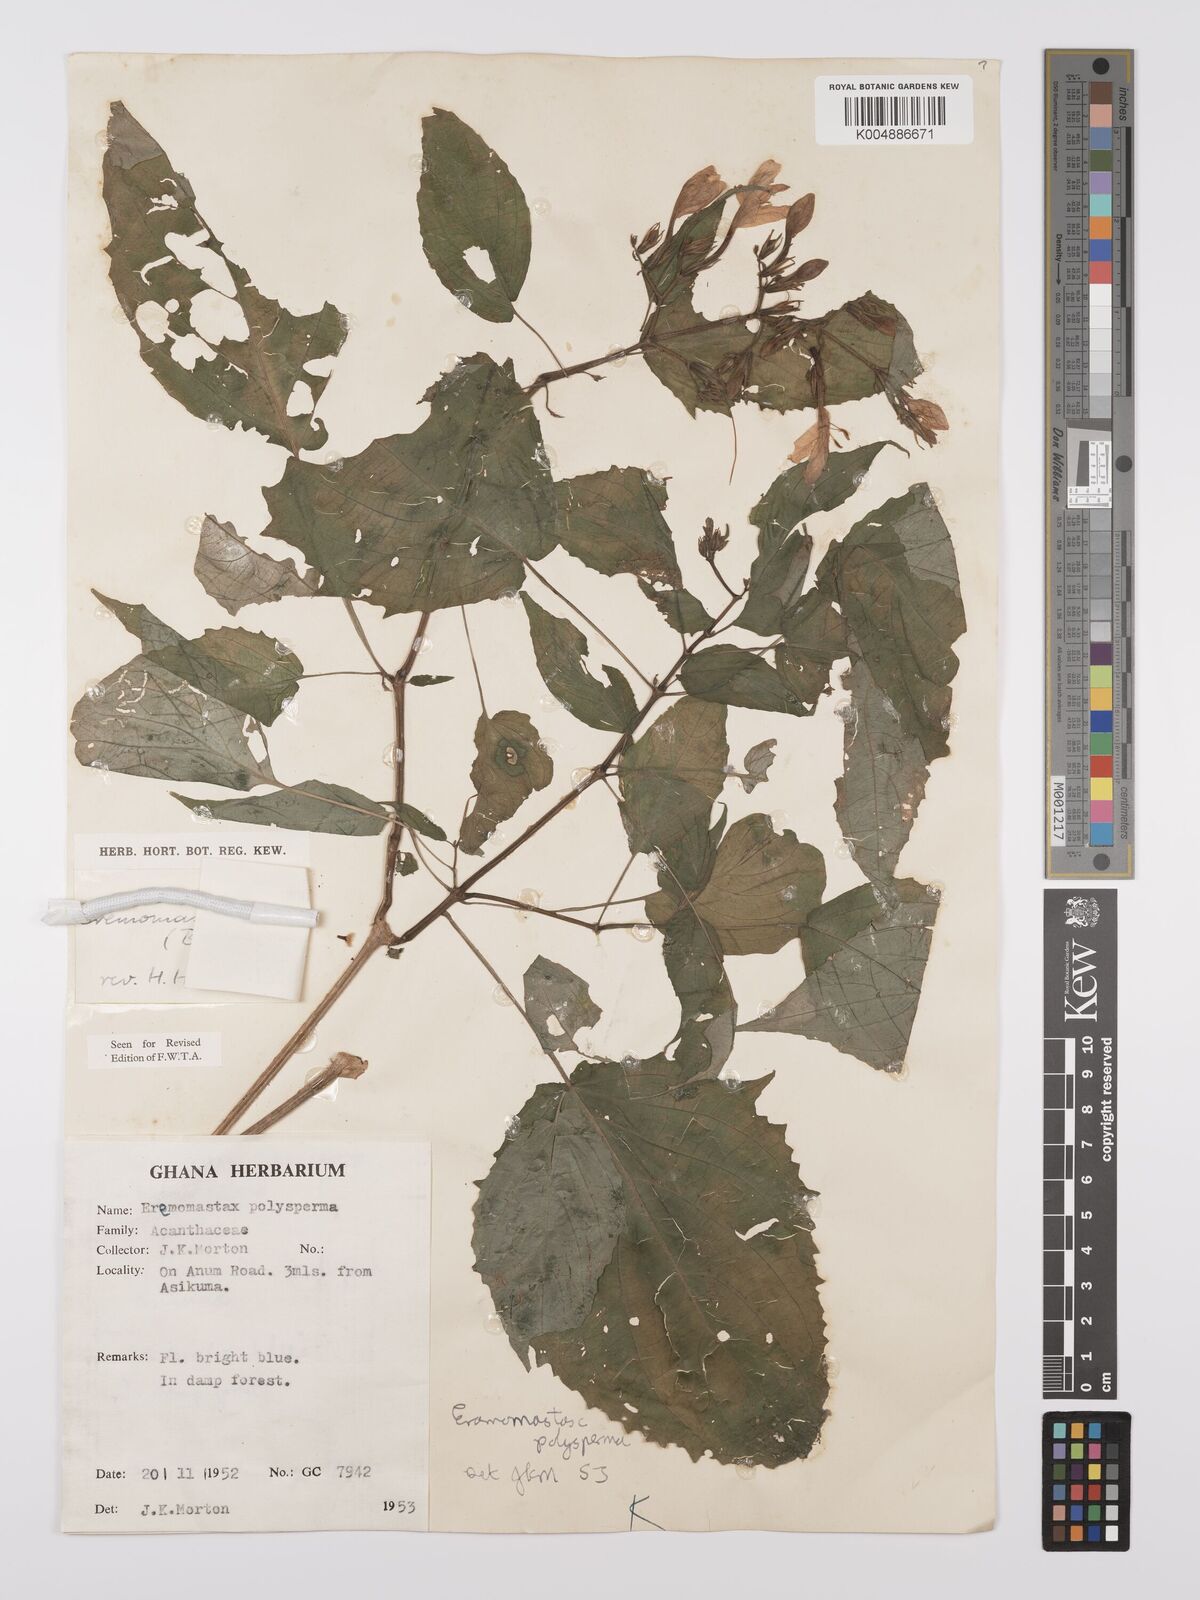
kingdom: Plantae
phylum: Tracheophyta
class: Magnoliopsida
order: Lamiales
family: Acanthaceae
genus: Eremomastax
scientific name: Eremomastax speciosa
